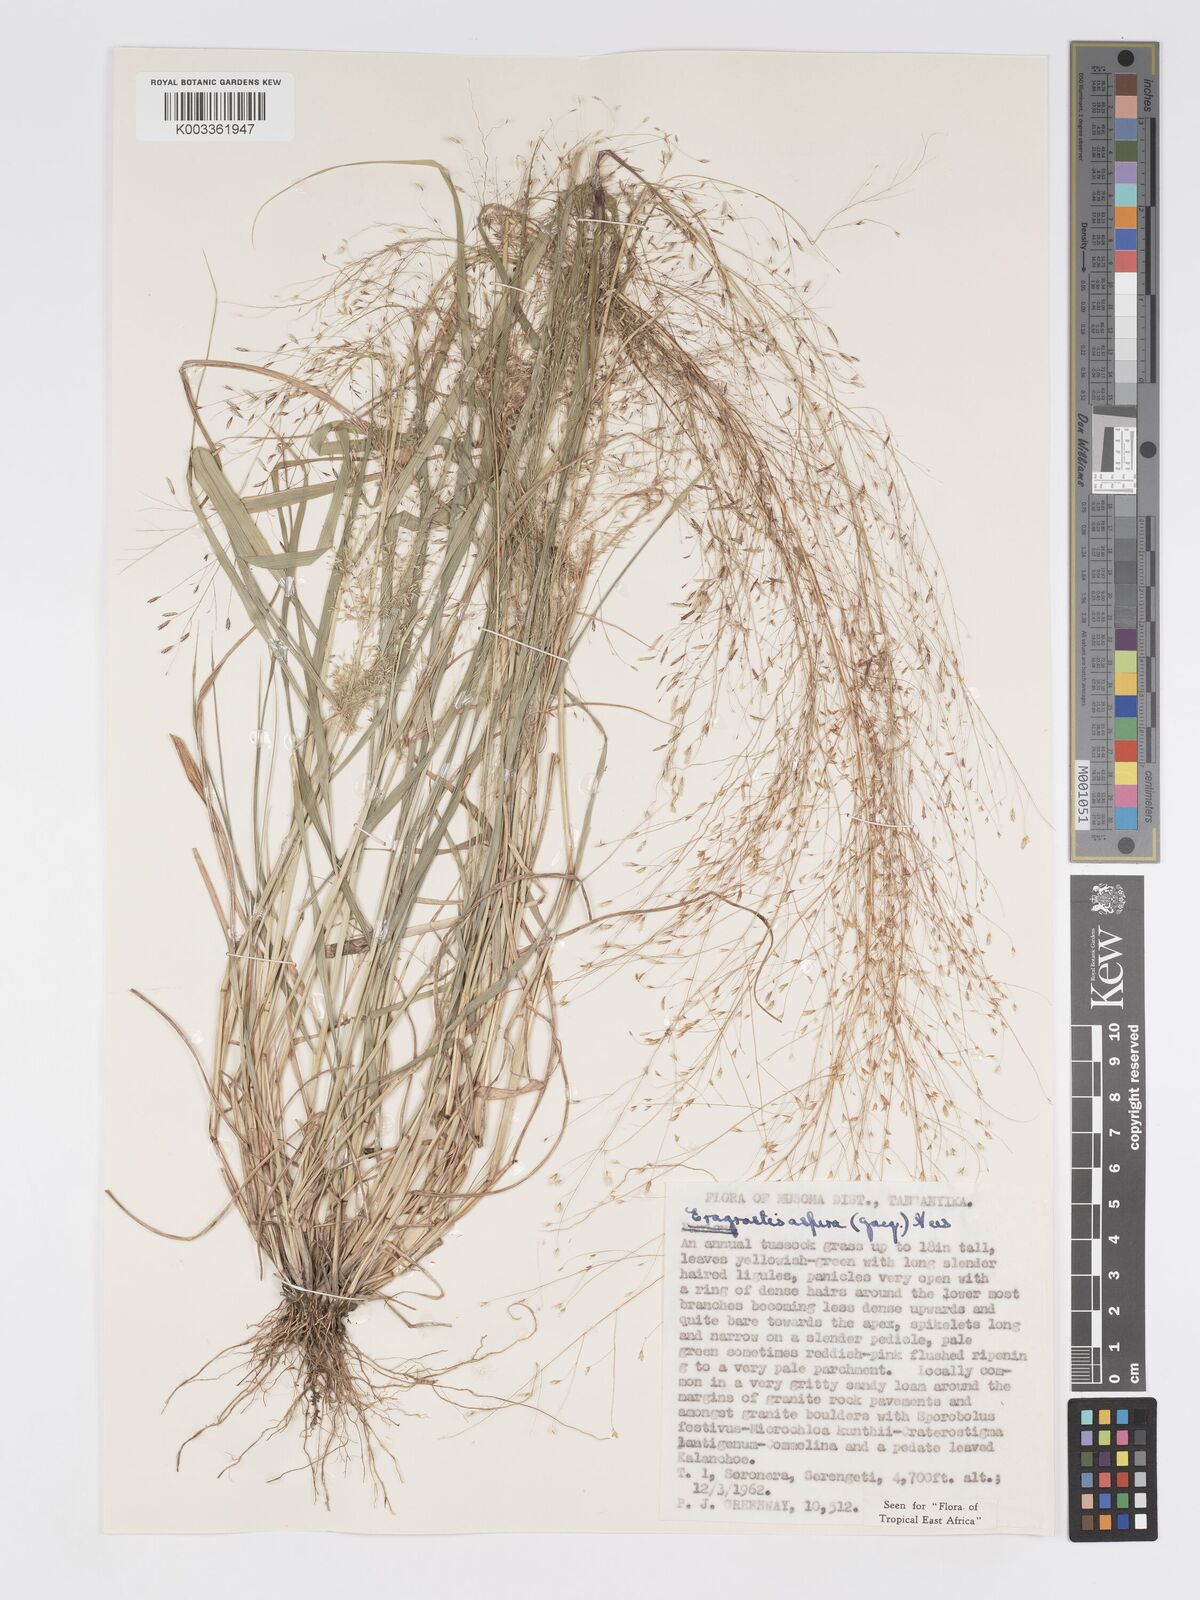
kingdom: Plantae
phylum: Tracheophyta
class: Liliopsida
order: Poales
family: Poaceae
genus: Eragrostis
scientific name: Eragrostis aspera
